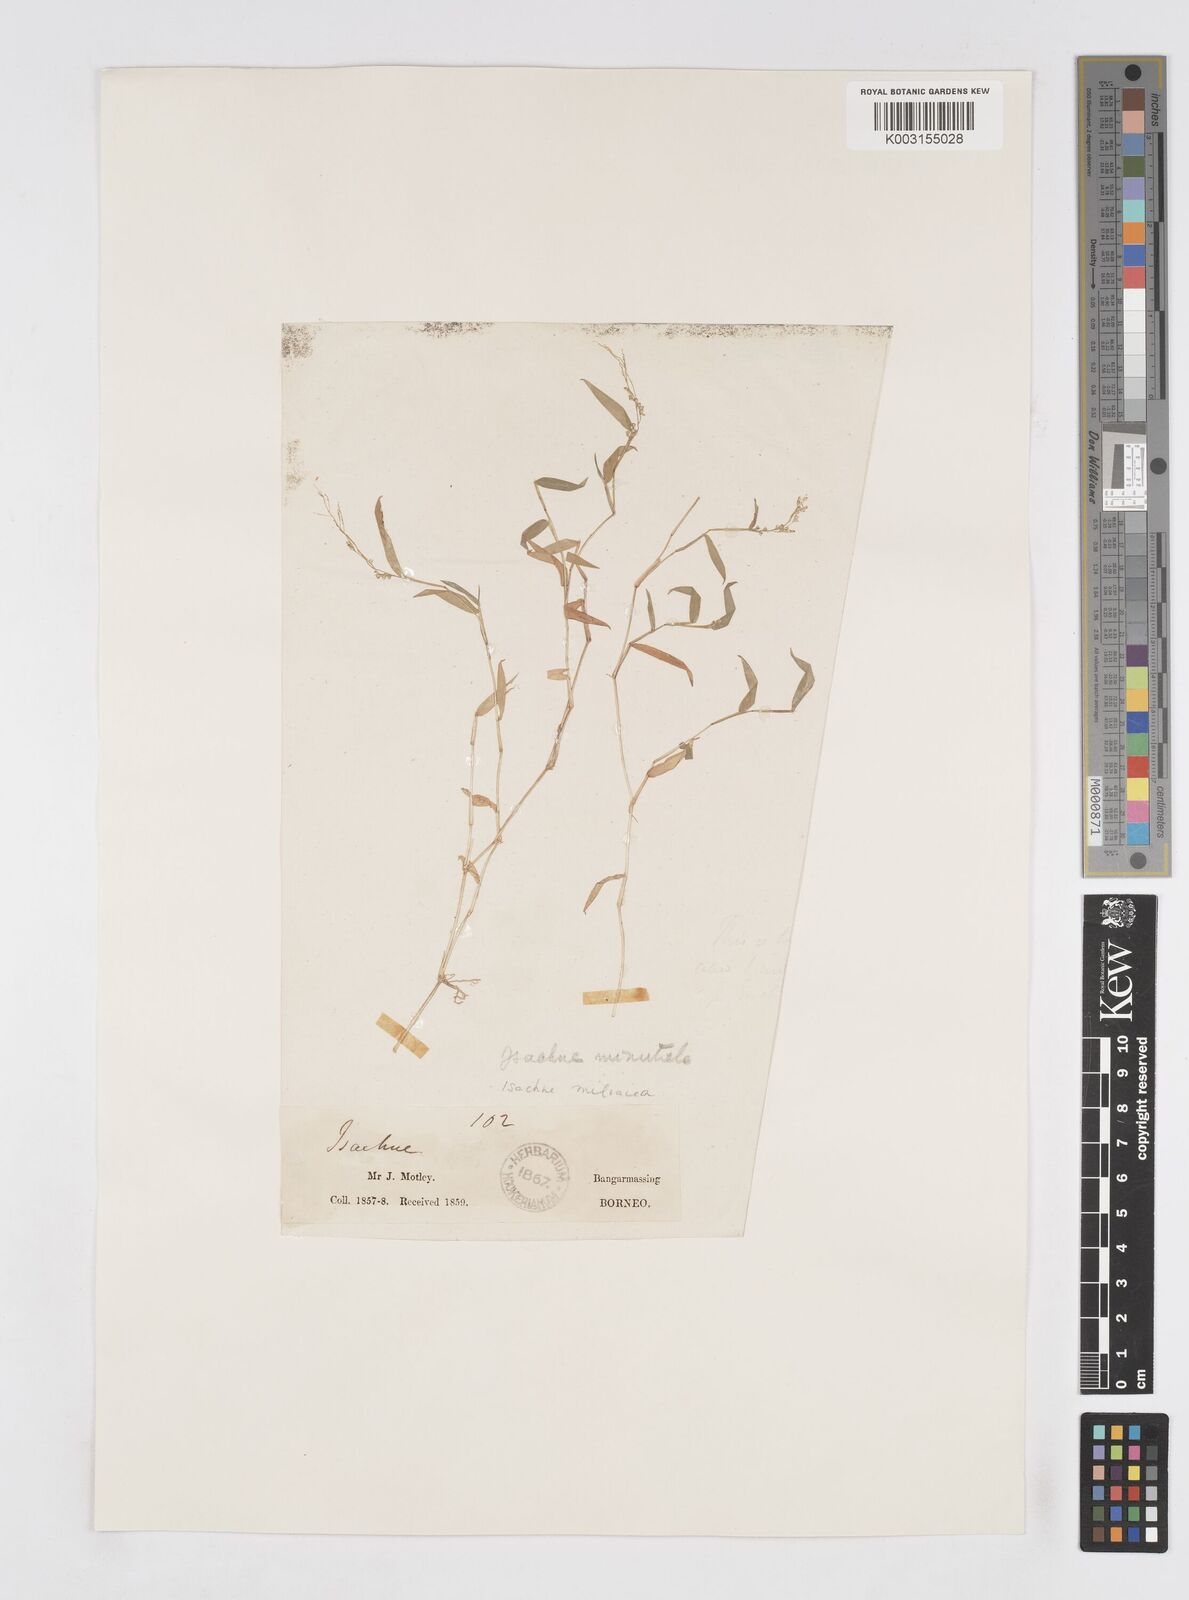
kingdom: Plantae
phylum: Tracheophyta
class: Liliopsida
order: Poales
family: Poaceae
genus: Isachne
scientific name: Isachne globosa
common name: Swamp millet
